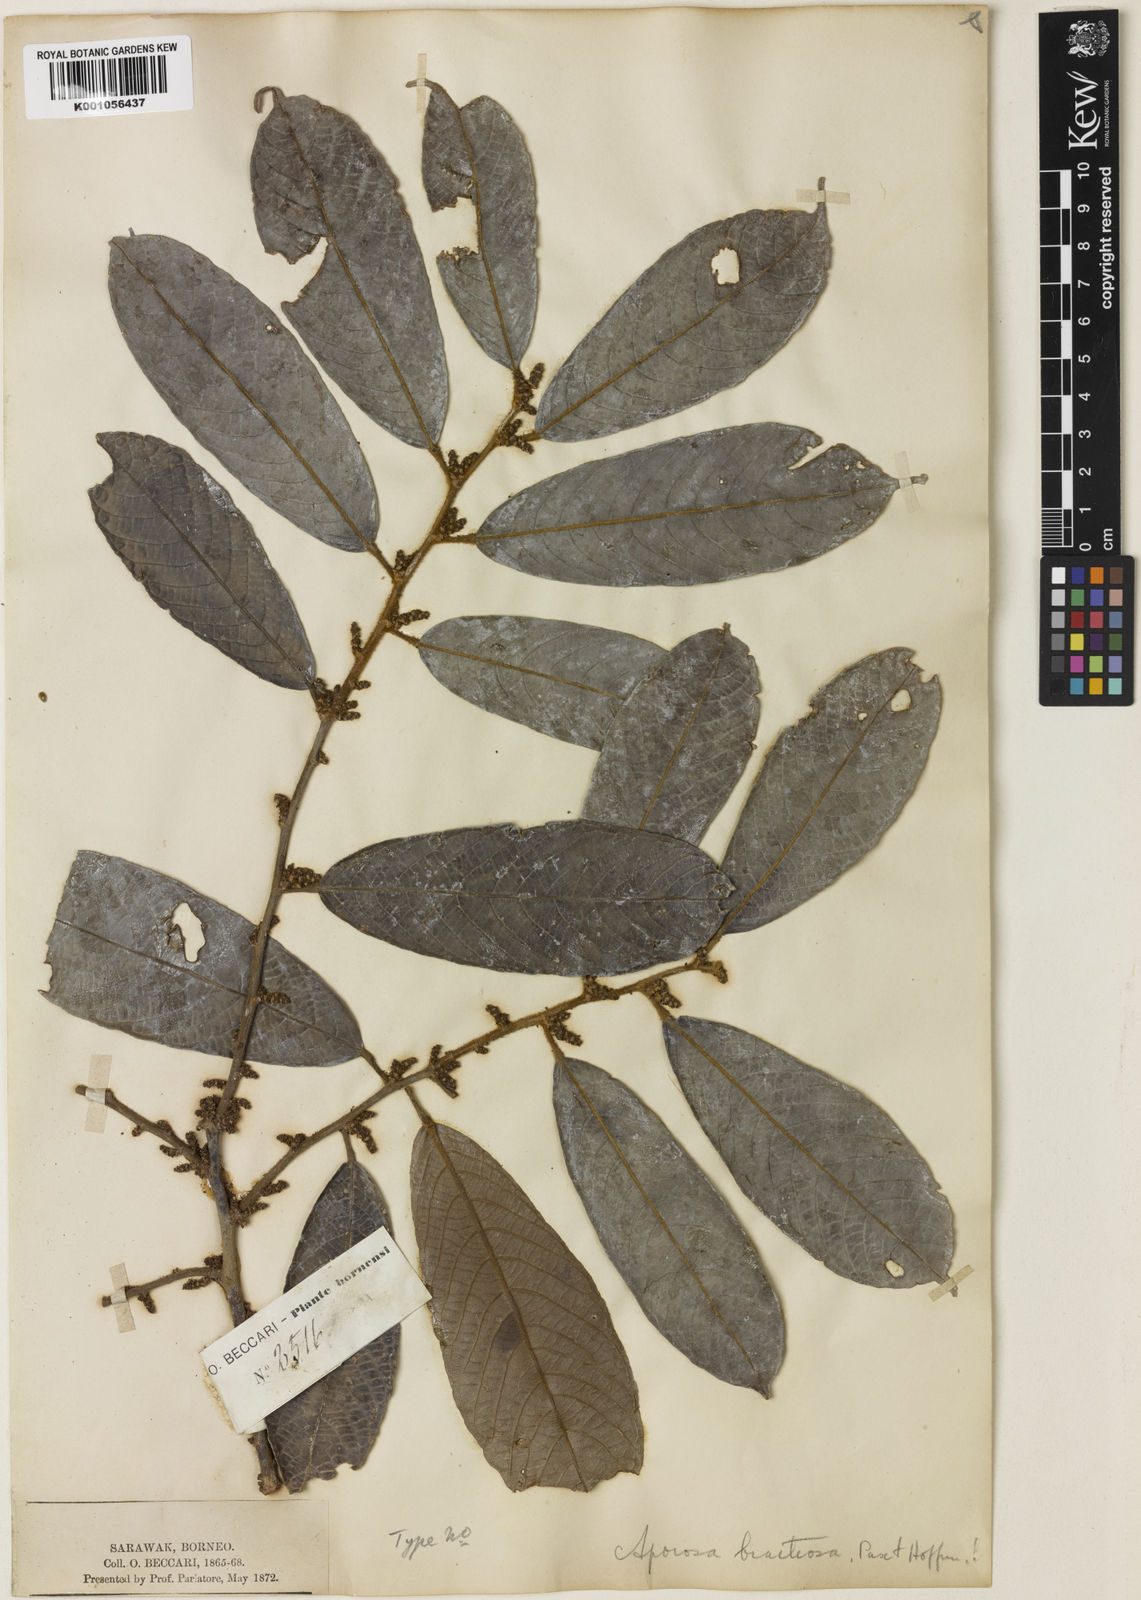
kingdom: Plantae
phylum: Tracheophyta
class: Magnoliopsida
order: Malpighiales
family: Phyllanthaceae
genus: Aporosa
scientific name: Aporosa subcaudata
